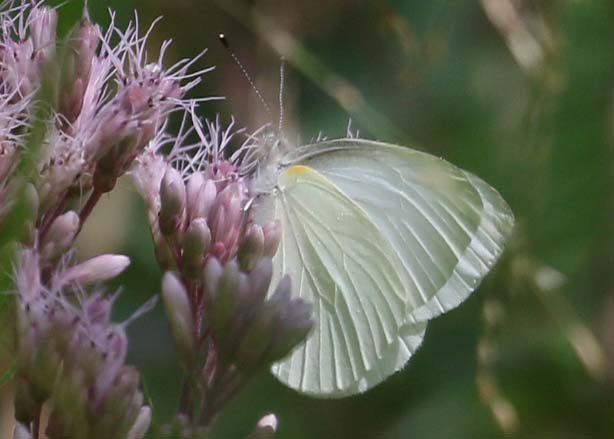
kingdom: Animalia
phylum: Arthropoda
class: Insecta
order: Lepidoptera
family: Pieridae
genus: Pieris
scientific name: Pieris oleracea
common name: Mustard White
